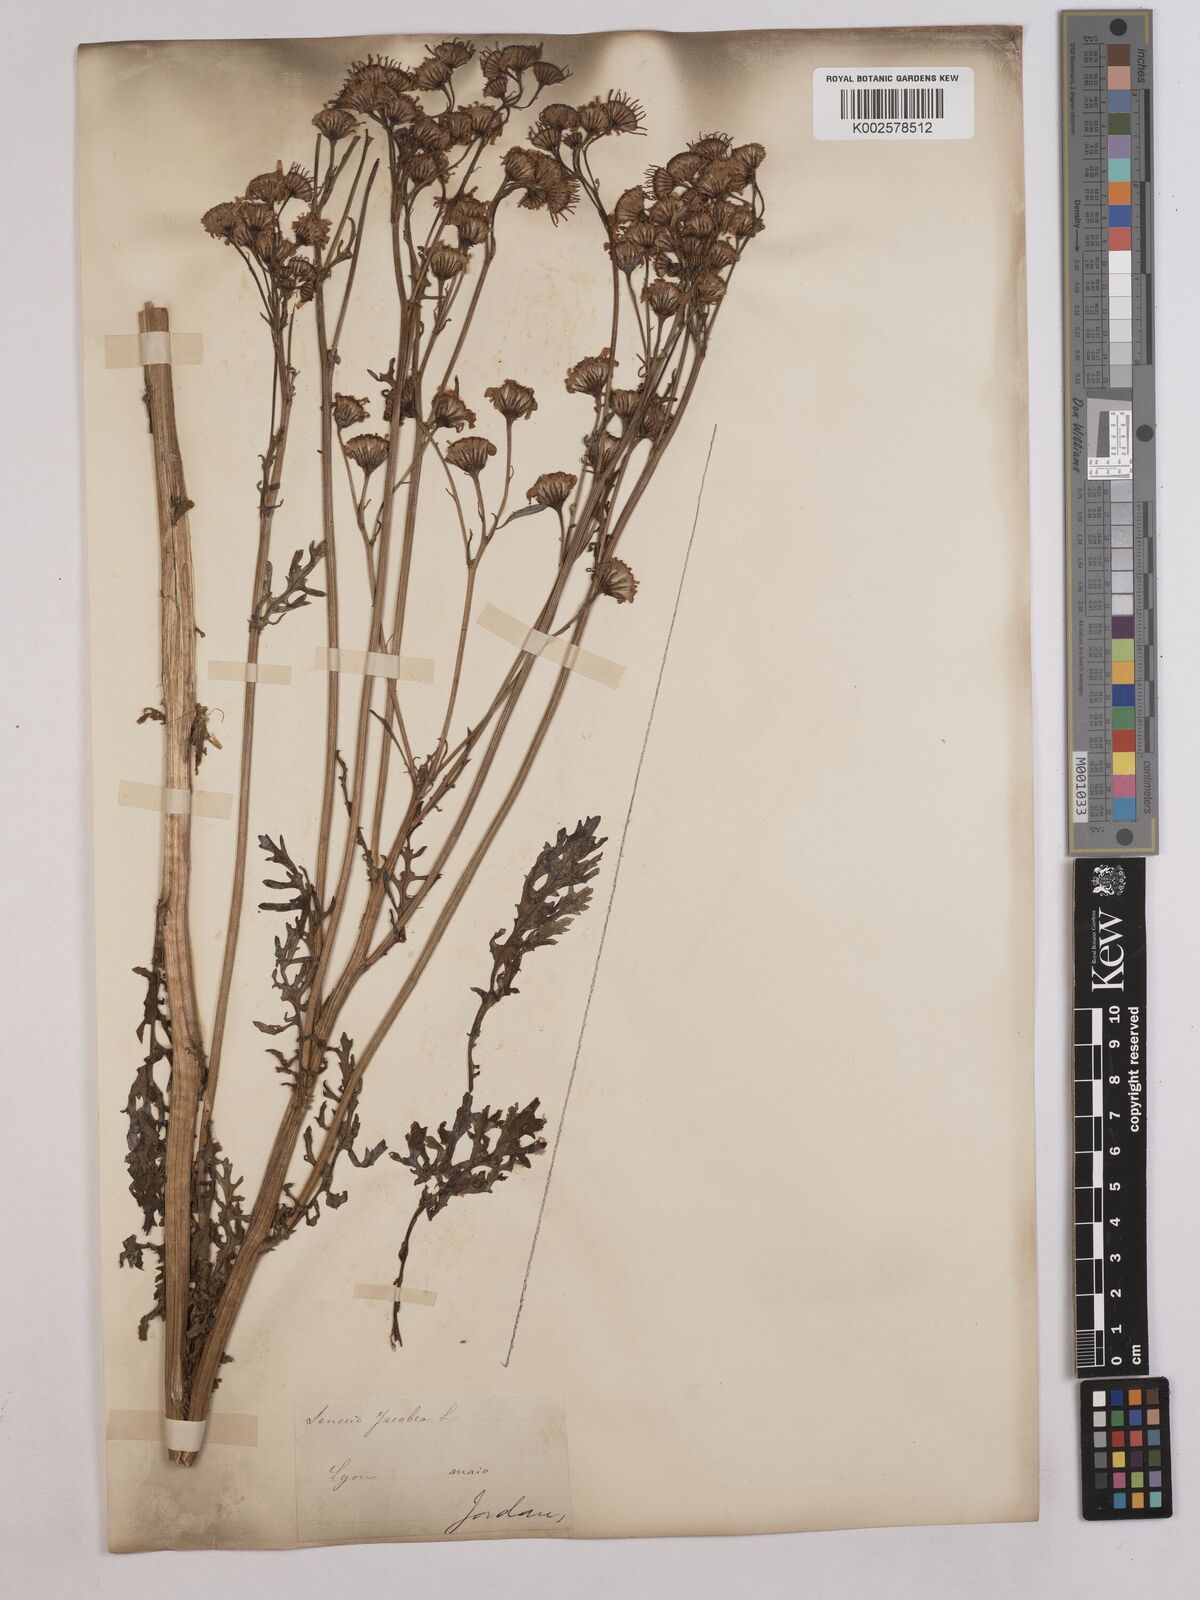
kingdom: Plantae
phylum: Tracheophyta
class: Magnoliopsida
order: Asterales
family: Asteraceae
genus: Jacobaea
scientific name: Jacobaea vulgaris
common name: Stinking willie
